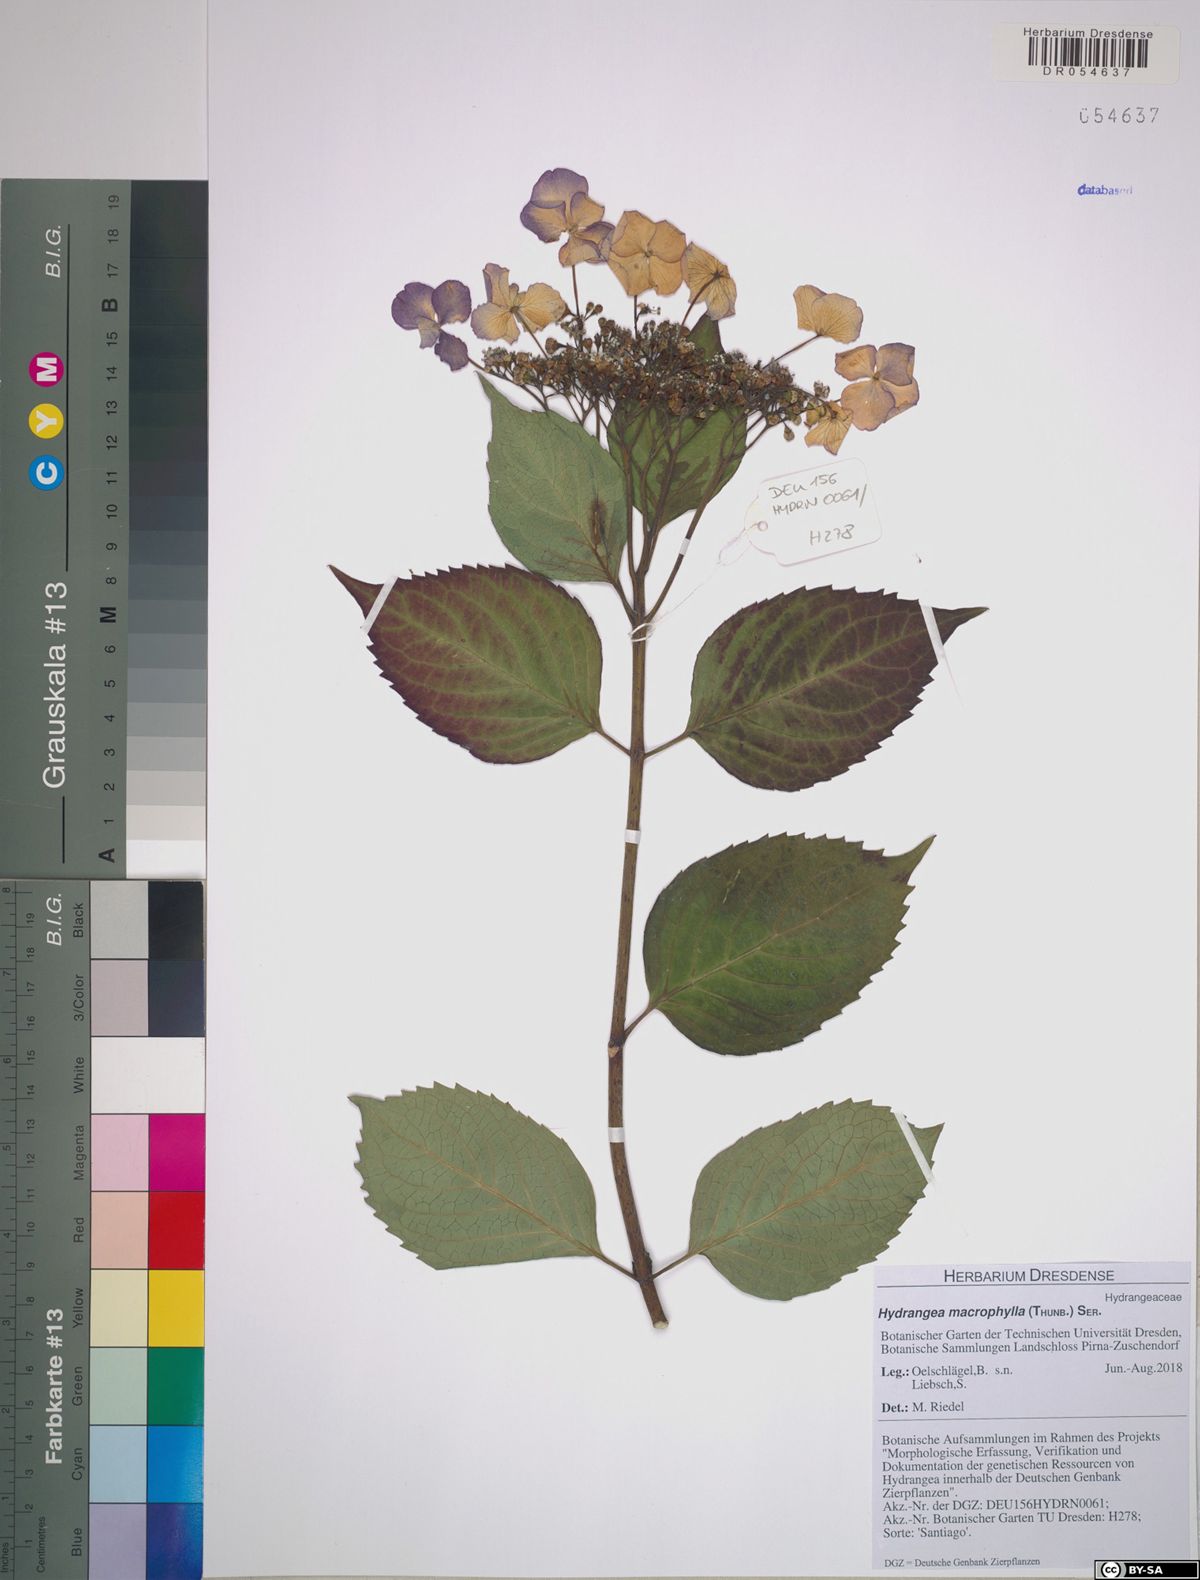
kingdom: Plantae
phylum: Tracheophyta
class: Magnoliopsida
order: Cornales
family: Hydrangeaceae
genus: Hydrangea
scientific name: Hydrangea macrophylla
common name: Hydrangea
